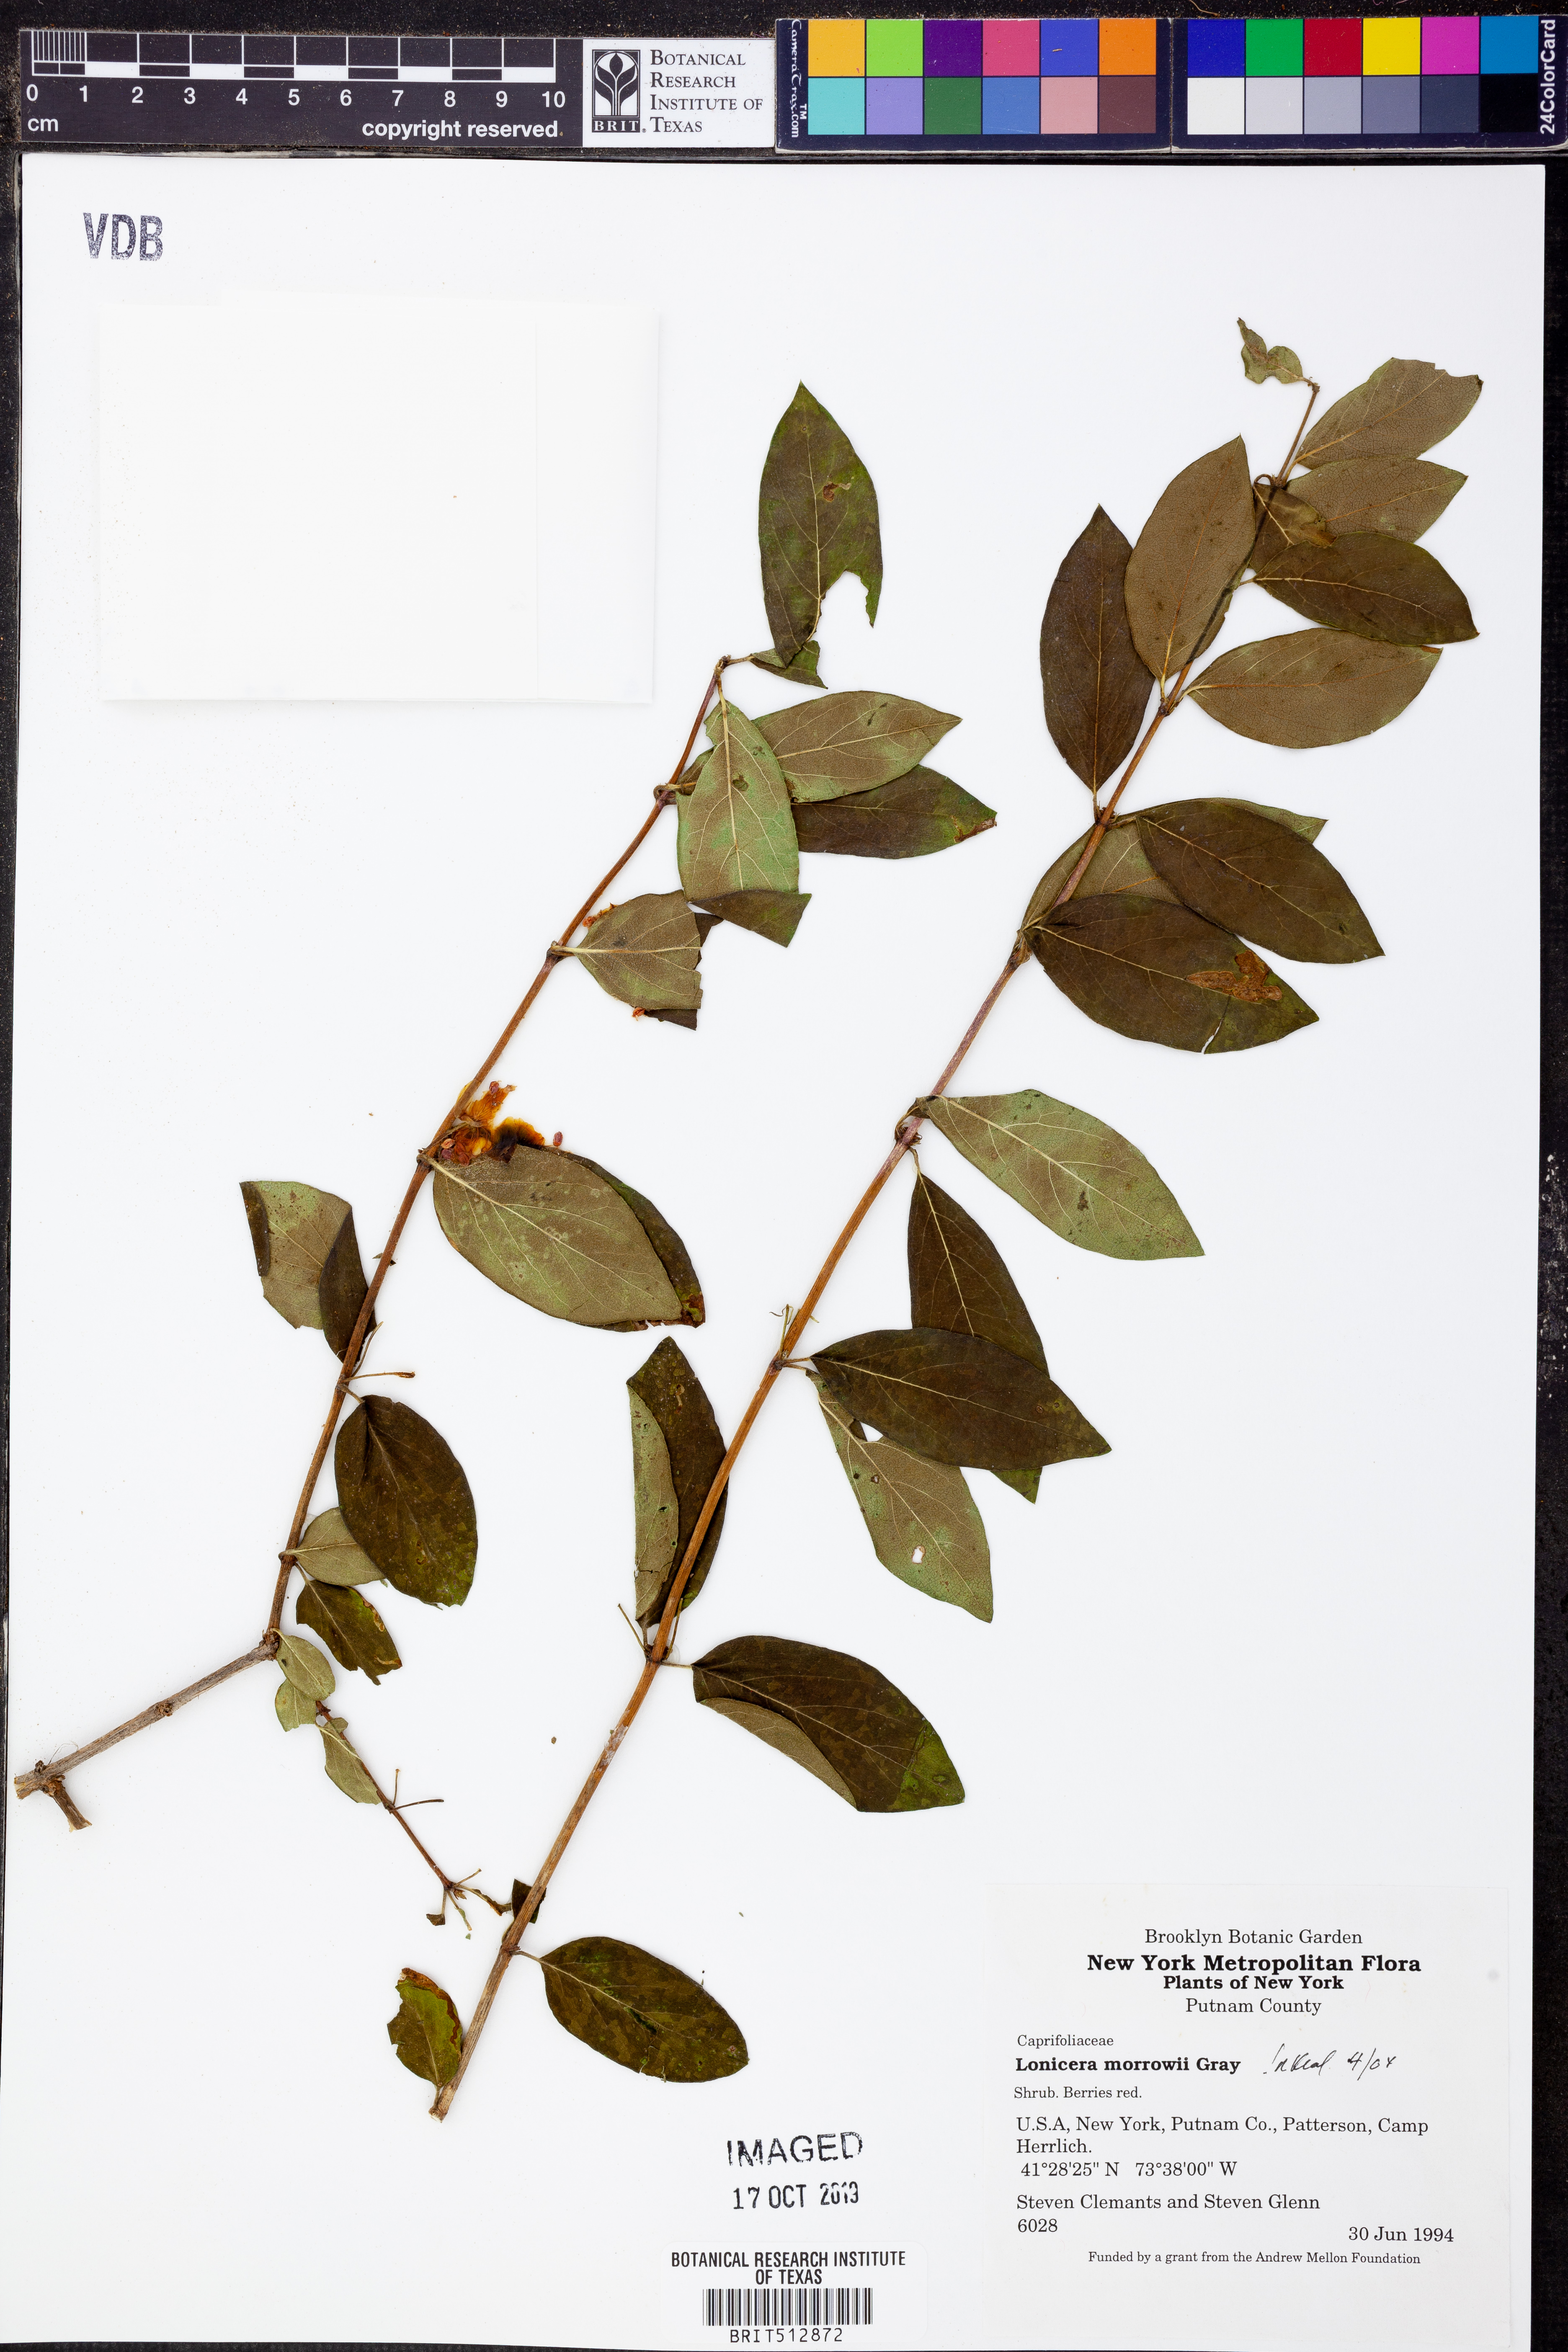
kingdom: Plantae
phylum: Tracheophyta
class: Magnoliopsida
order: Dipsacales
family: Caprifoliaceae
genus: Lonicera
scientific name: Lonicera morrowii
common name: Morrow's honeysuckle
